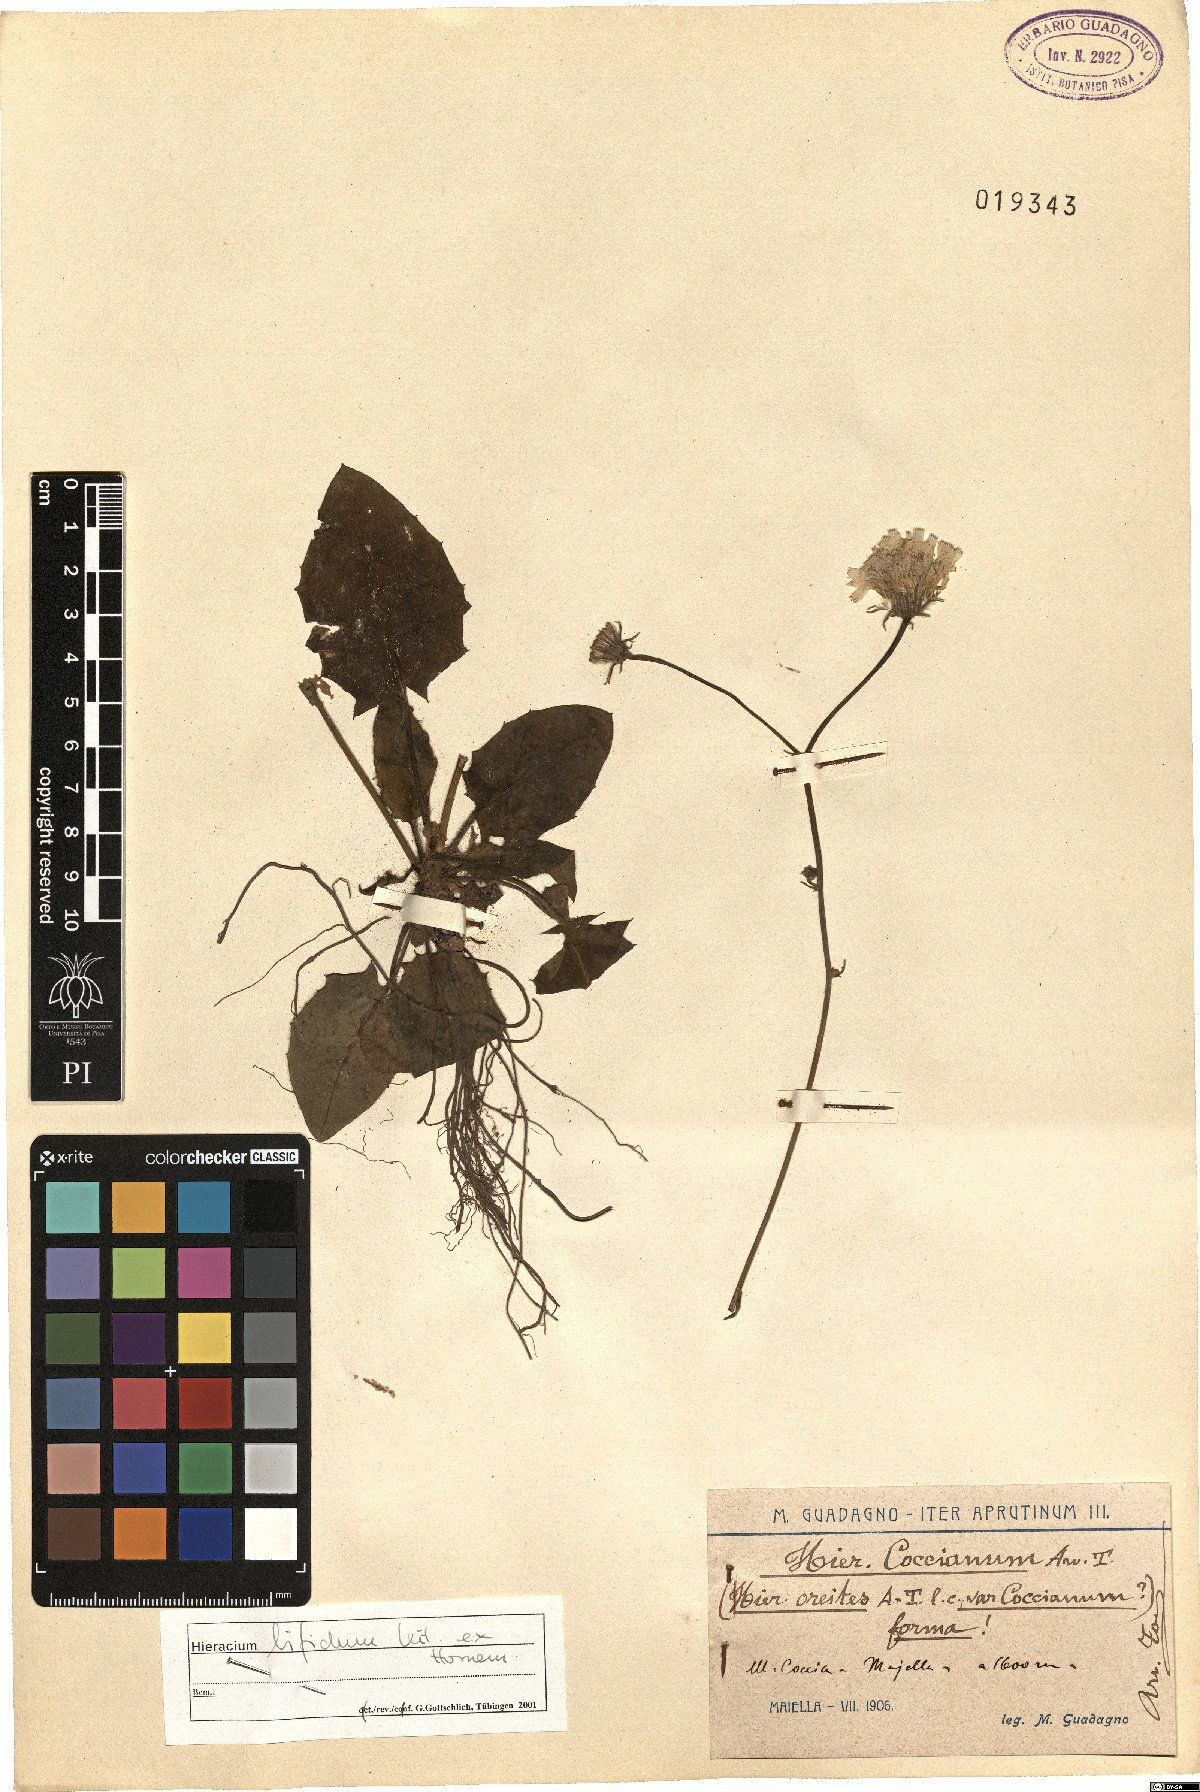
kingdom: Plantae
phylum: Tracheophyta
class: Magnoliopsida
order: Asterales
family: Asteraceae
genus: Hieracium
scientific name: Hieracium bifidum
